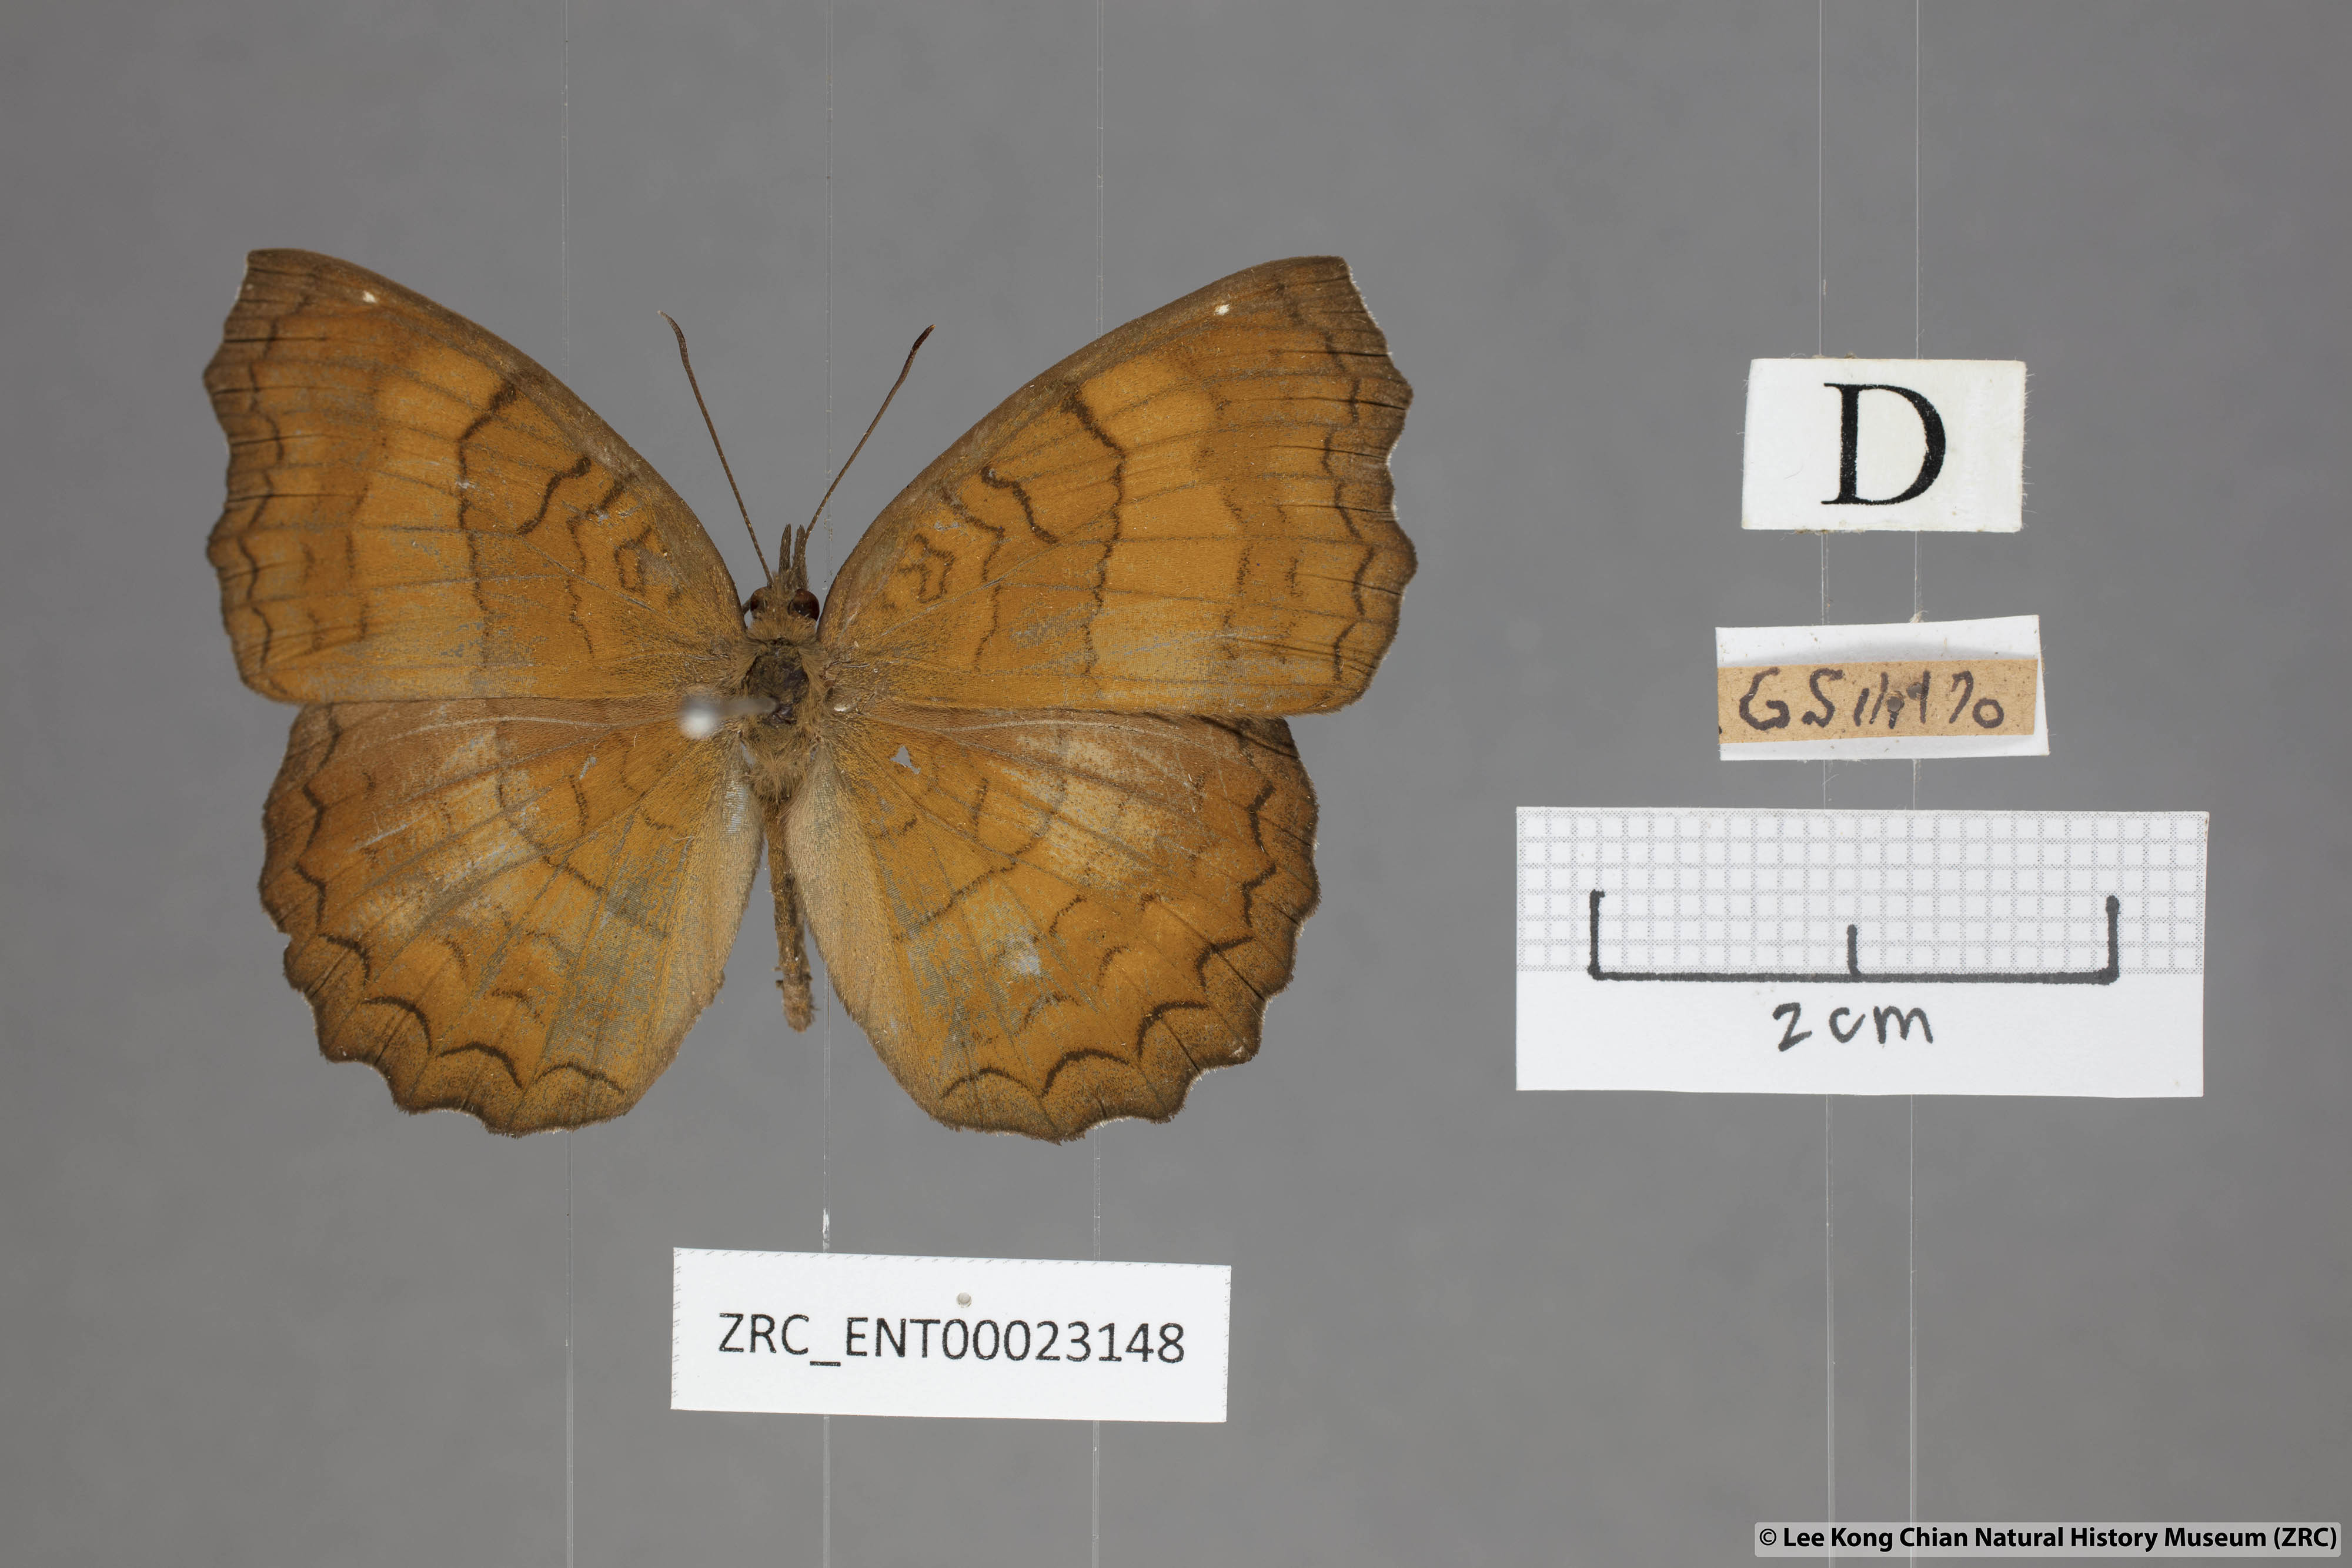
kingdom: Animalia
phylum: Arthropoda
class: Insecta
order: Lepidoptera
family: Nymphalidae
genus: Ariadne
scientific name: Ariadne ariadne
